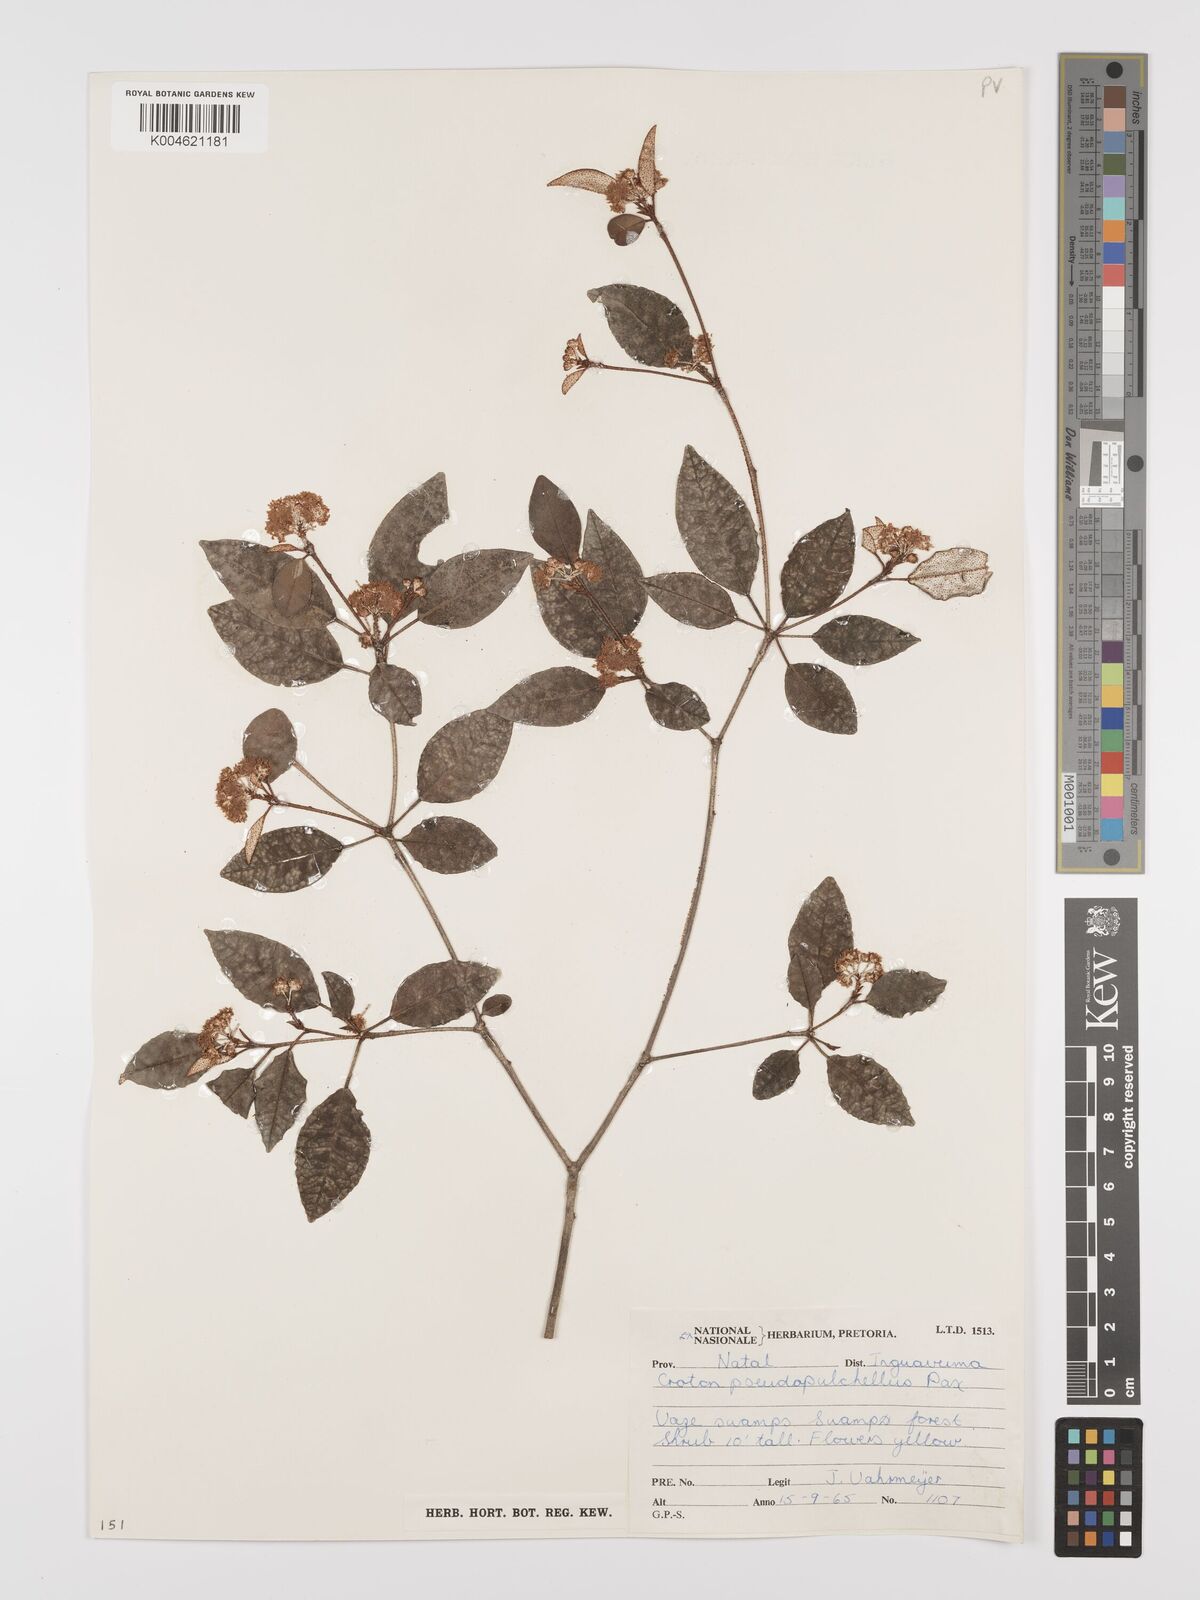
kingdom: Plantae
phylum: Tracheophyta
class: Magnoliopsida
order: Malpighiales
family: Euphorbiaceae
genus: Croton
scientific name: Croton pseudopulchellus
